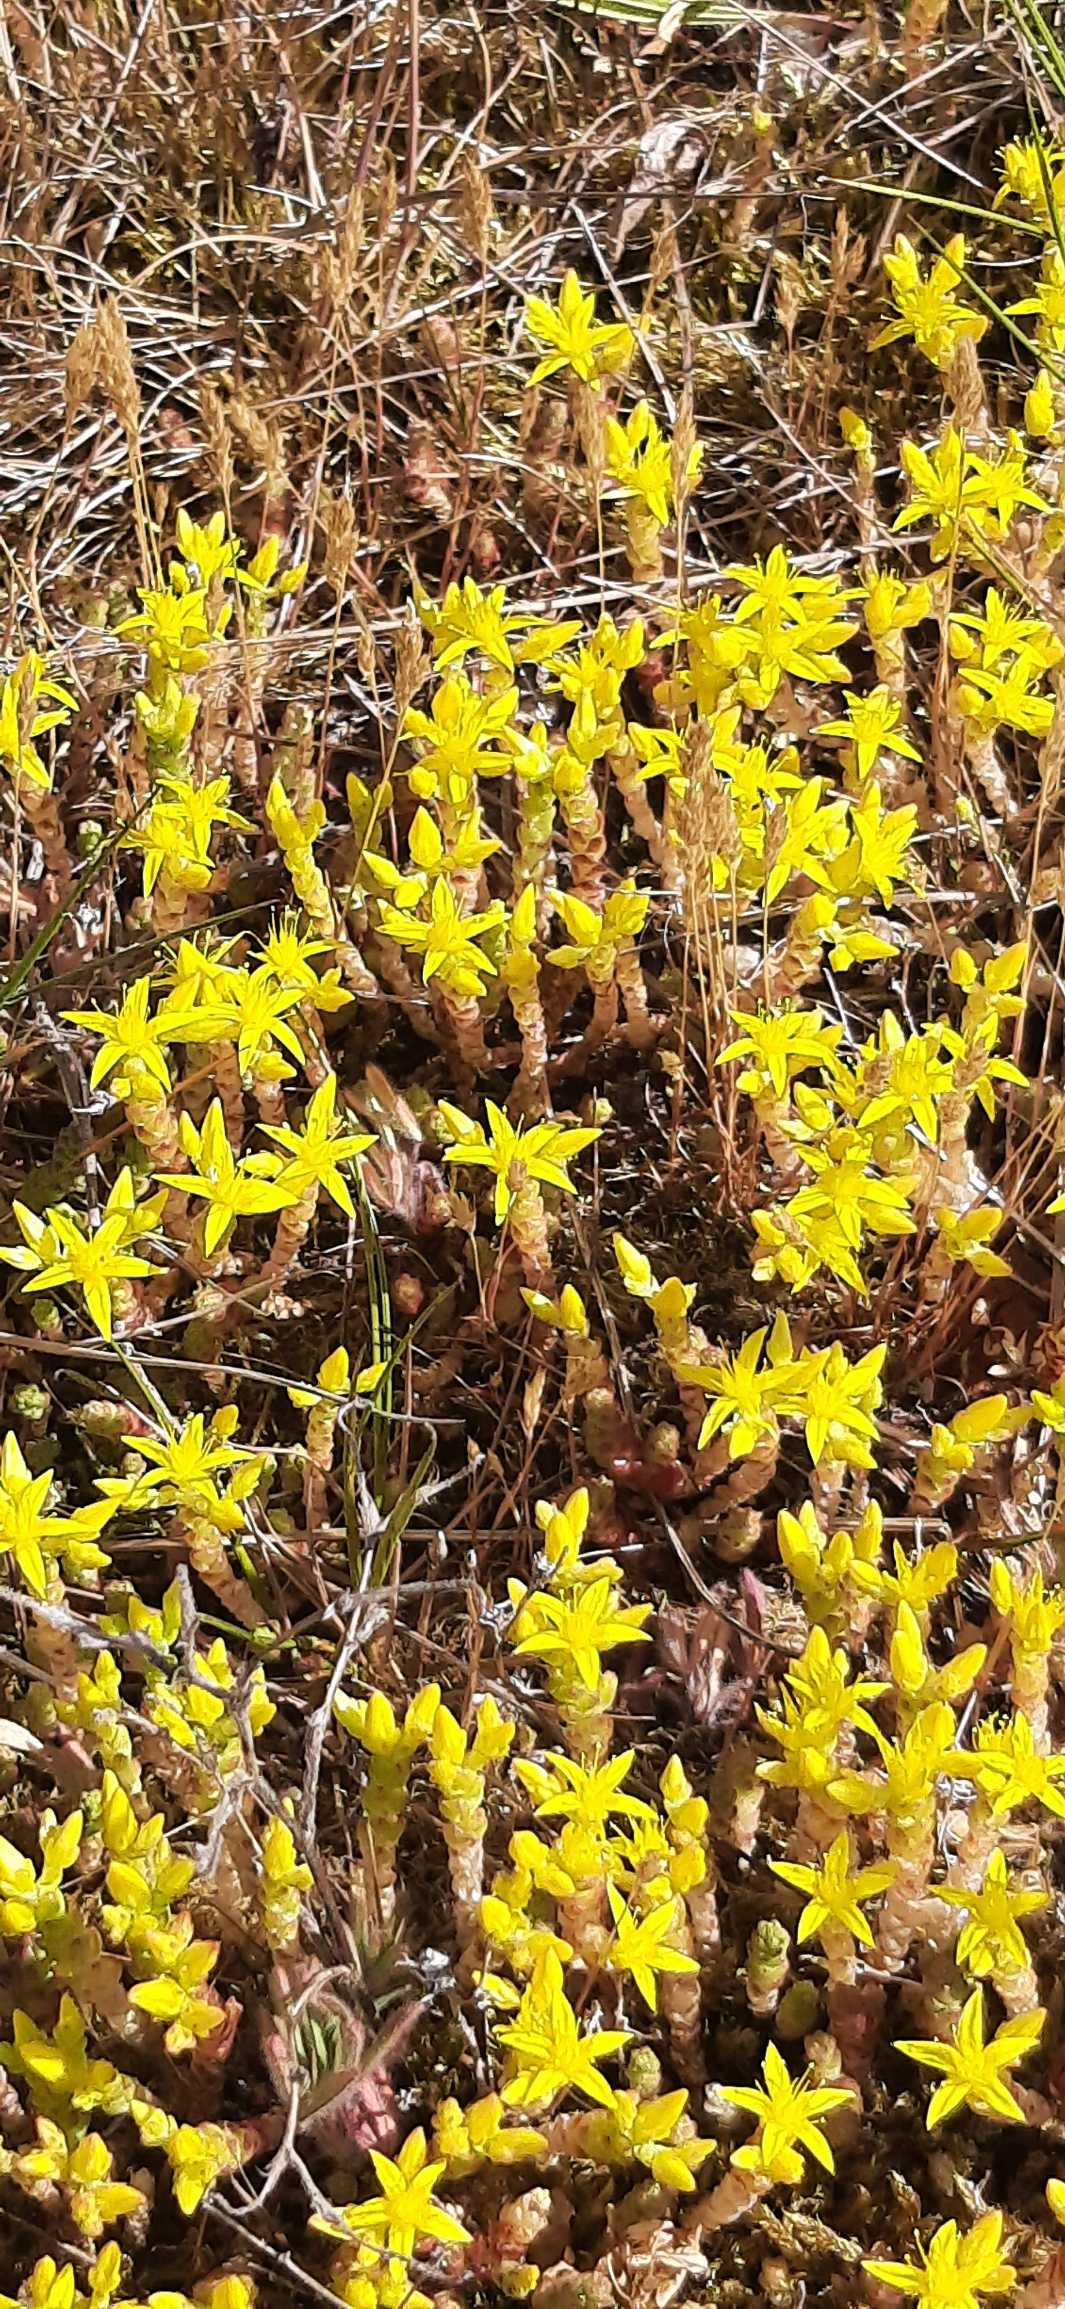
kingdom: Plantae
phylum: Tracheophyta
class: Magnoliopsida
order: Saxifragales
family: Crassulaceae
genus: Sedum
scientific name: Sedum acre
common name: Bidende stenurt
